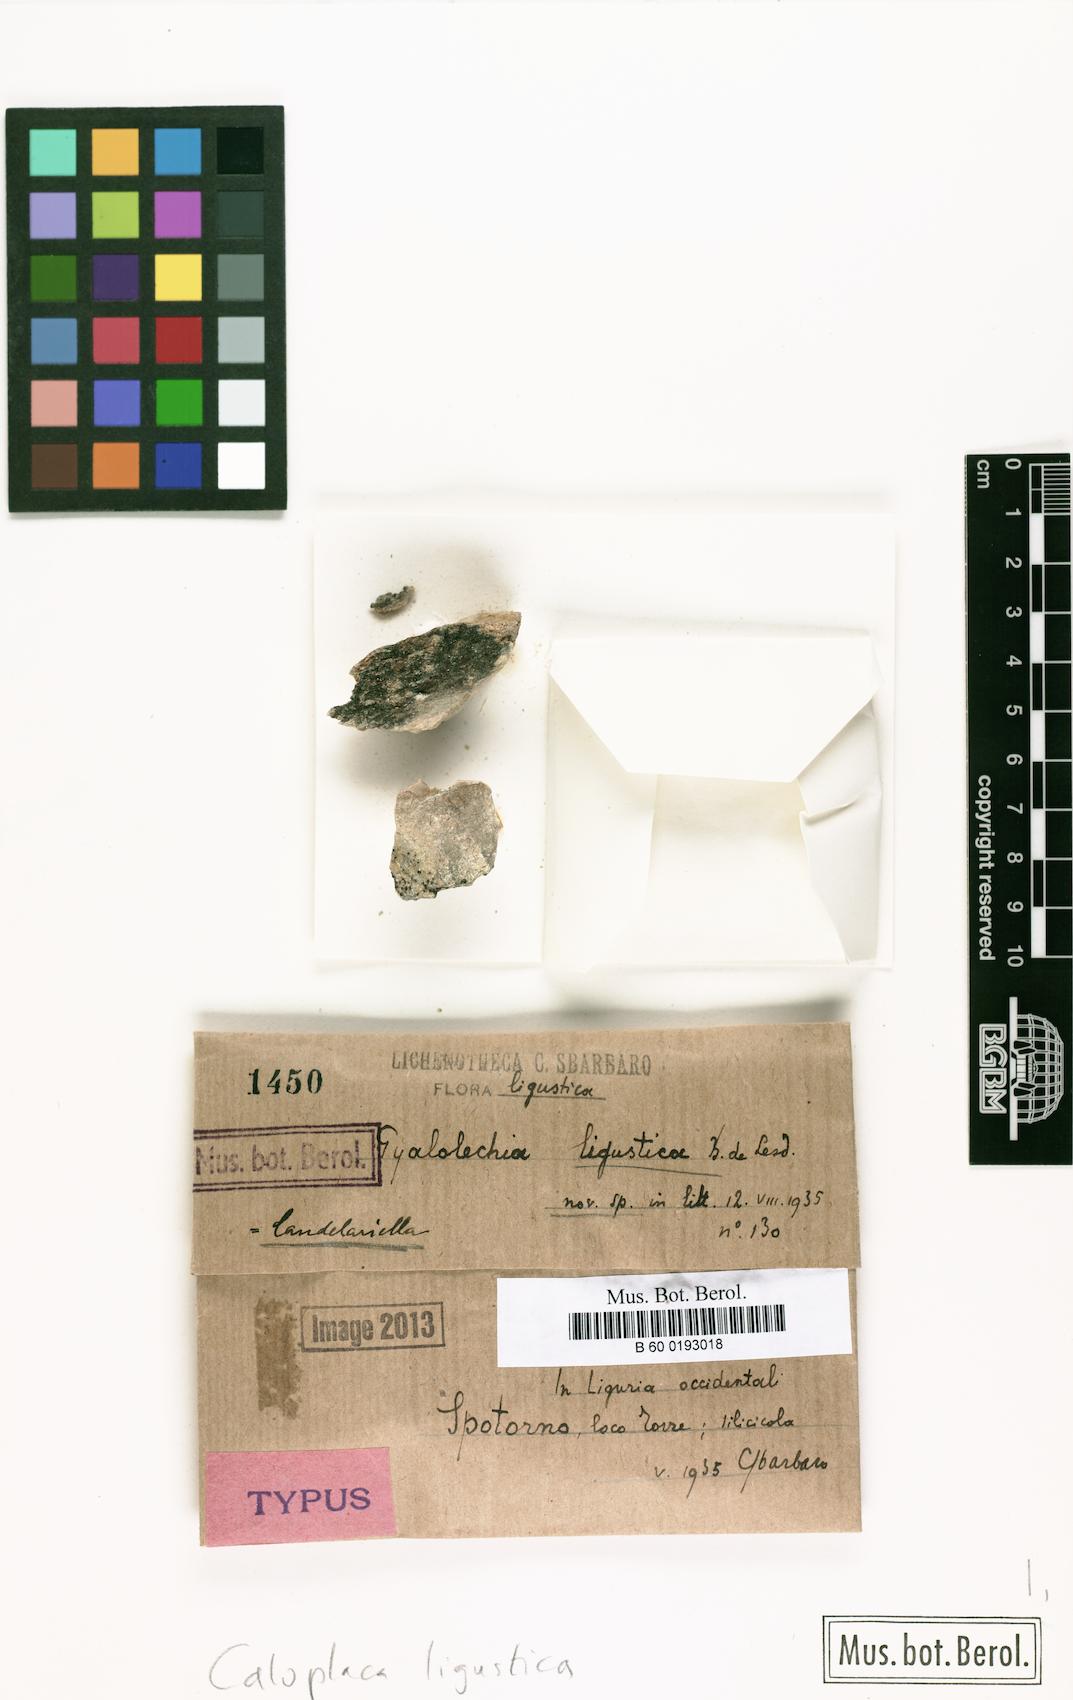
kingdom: Fungi
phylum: Ascomycota
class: Lecanoromycetes
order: Teloschistales
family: Teloschistaceae
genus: Caloplaca
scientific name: Caloplaca ligustica
